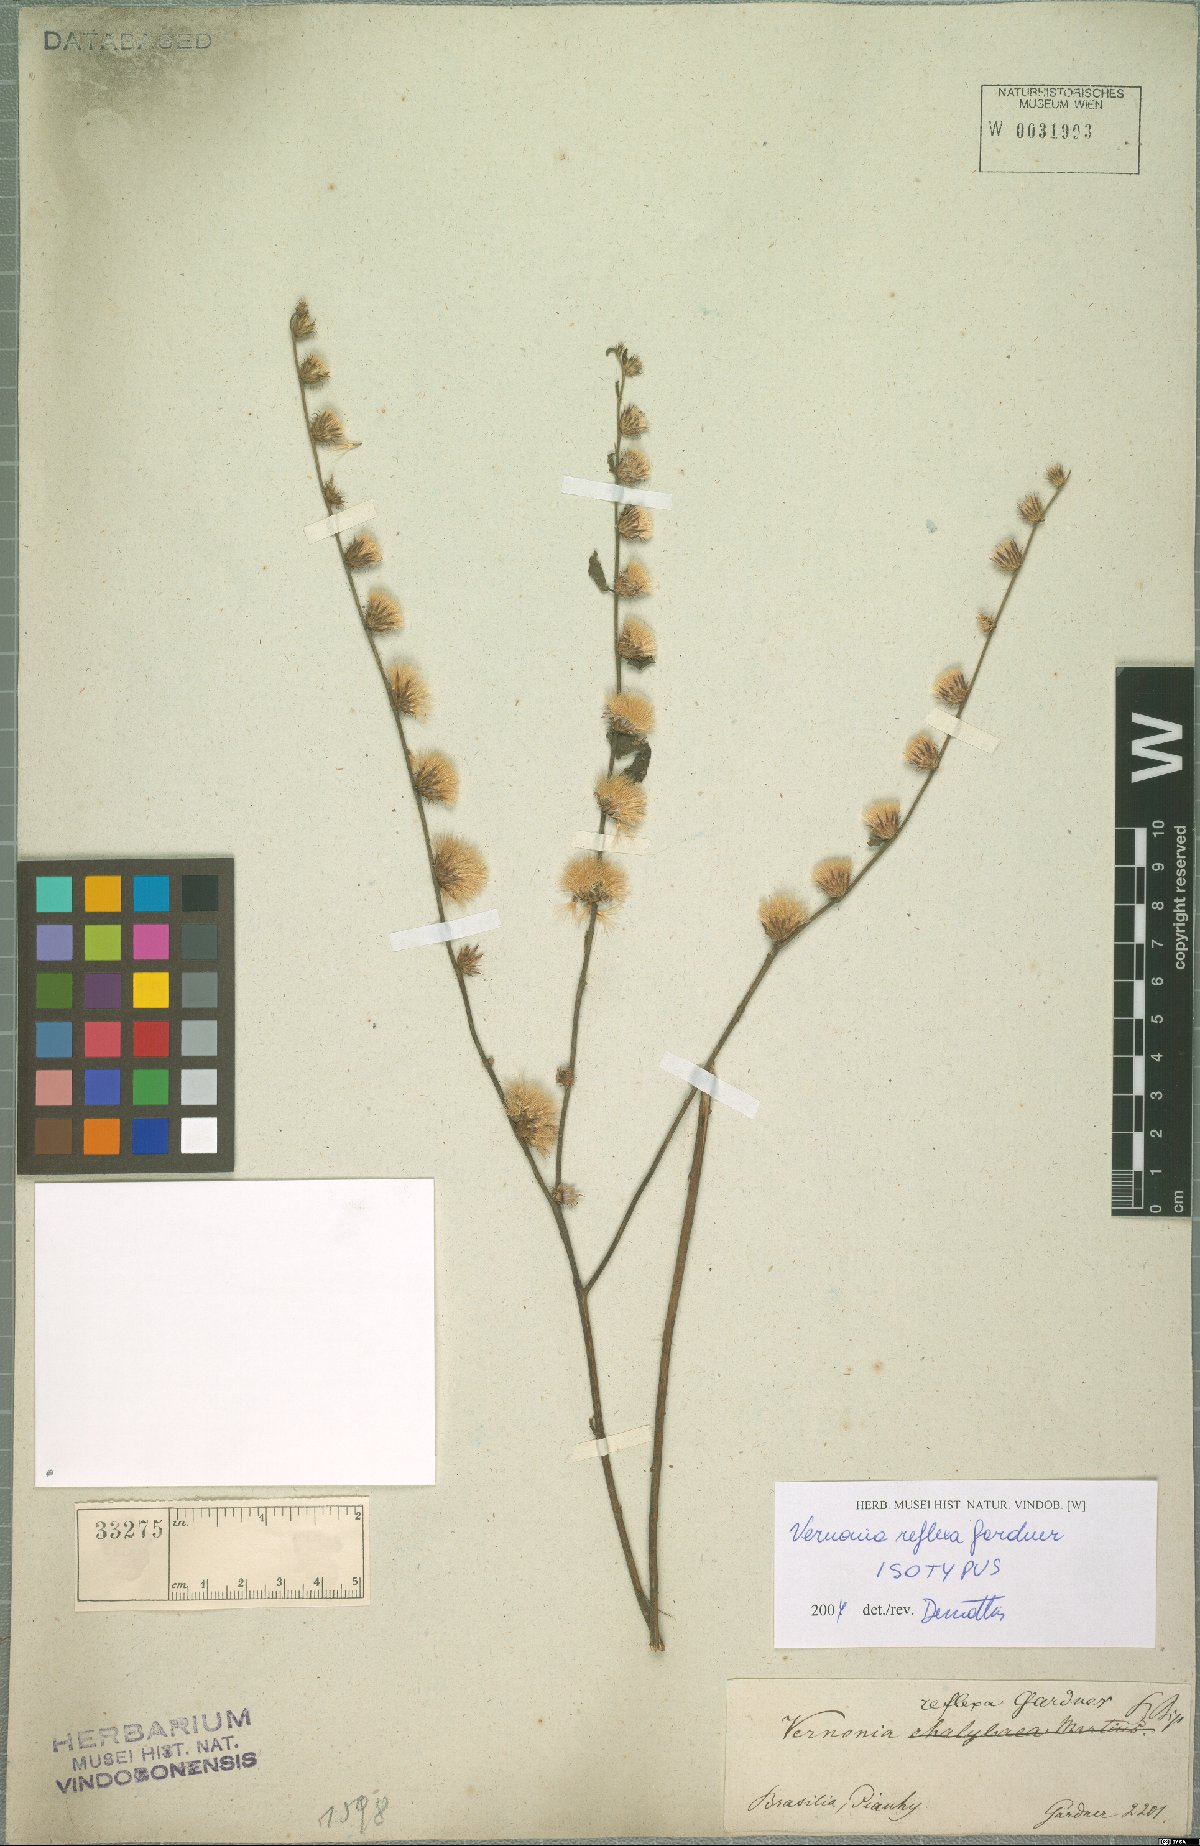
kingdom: Plantae
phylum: Tracheophyta
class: Magnoliopsida
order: Asterales
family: Asteraceae
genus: Lepidaploa
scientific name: Lepidaploa reflexa
